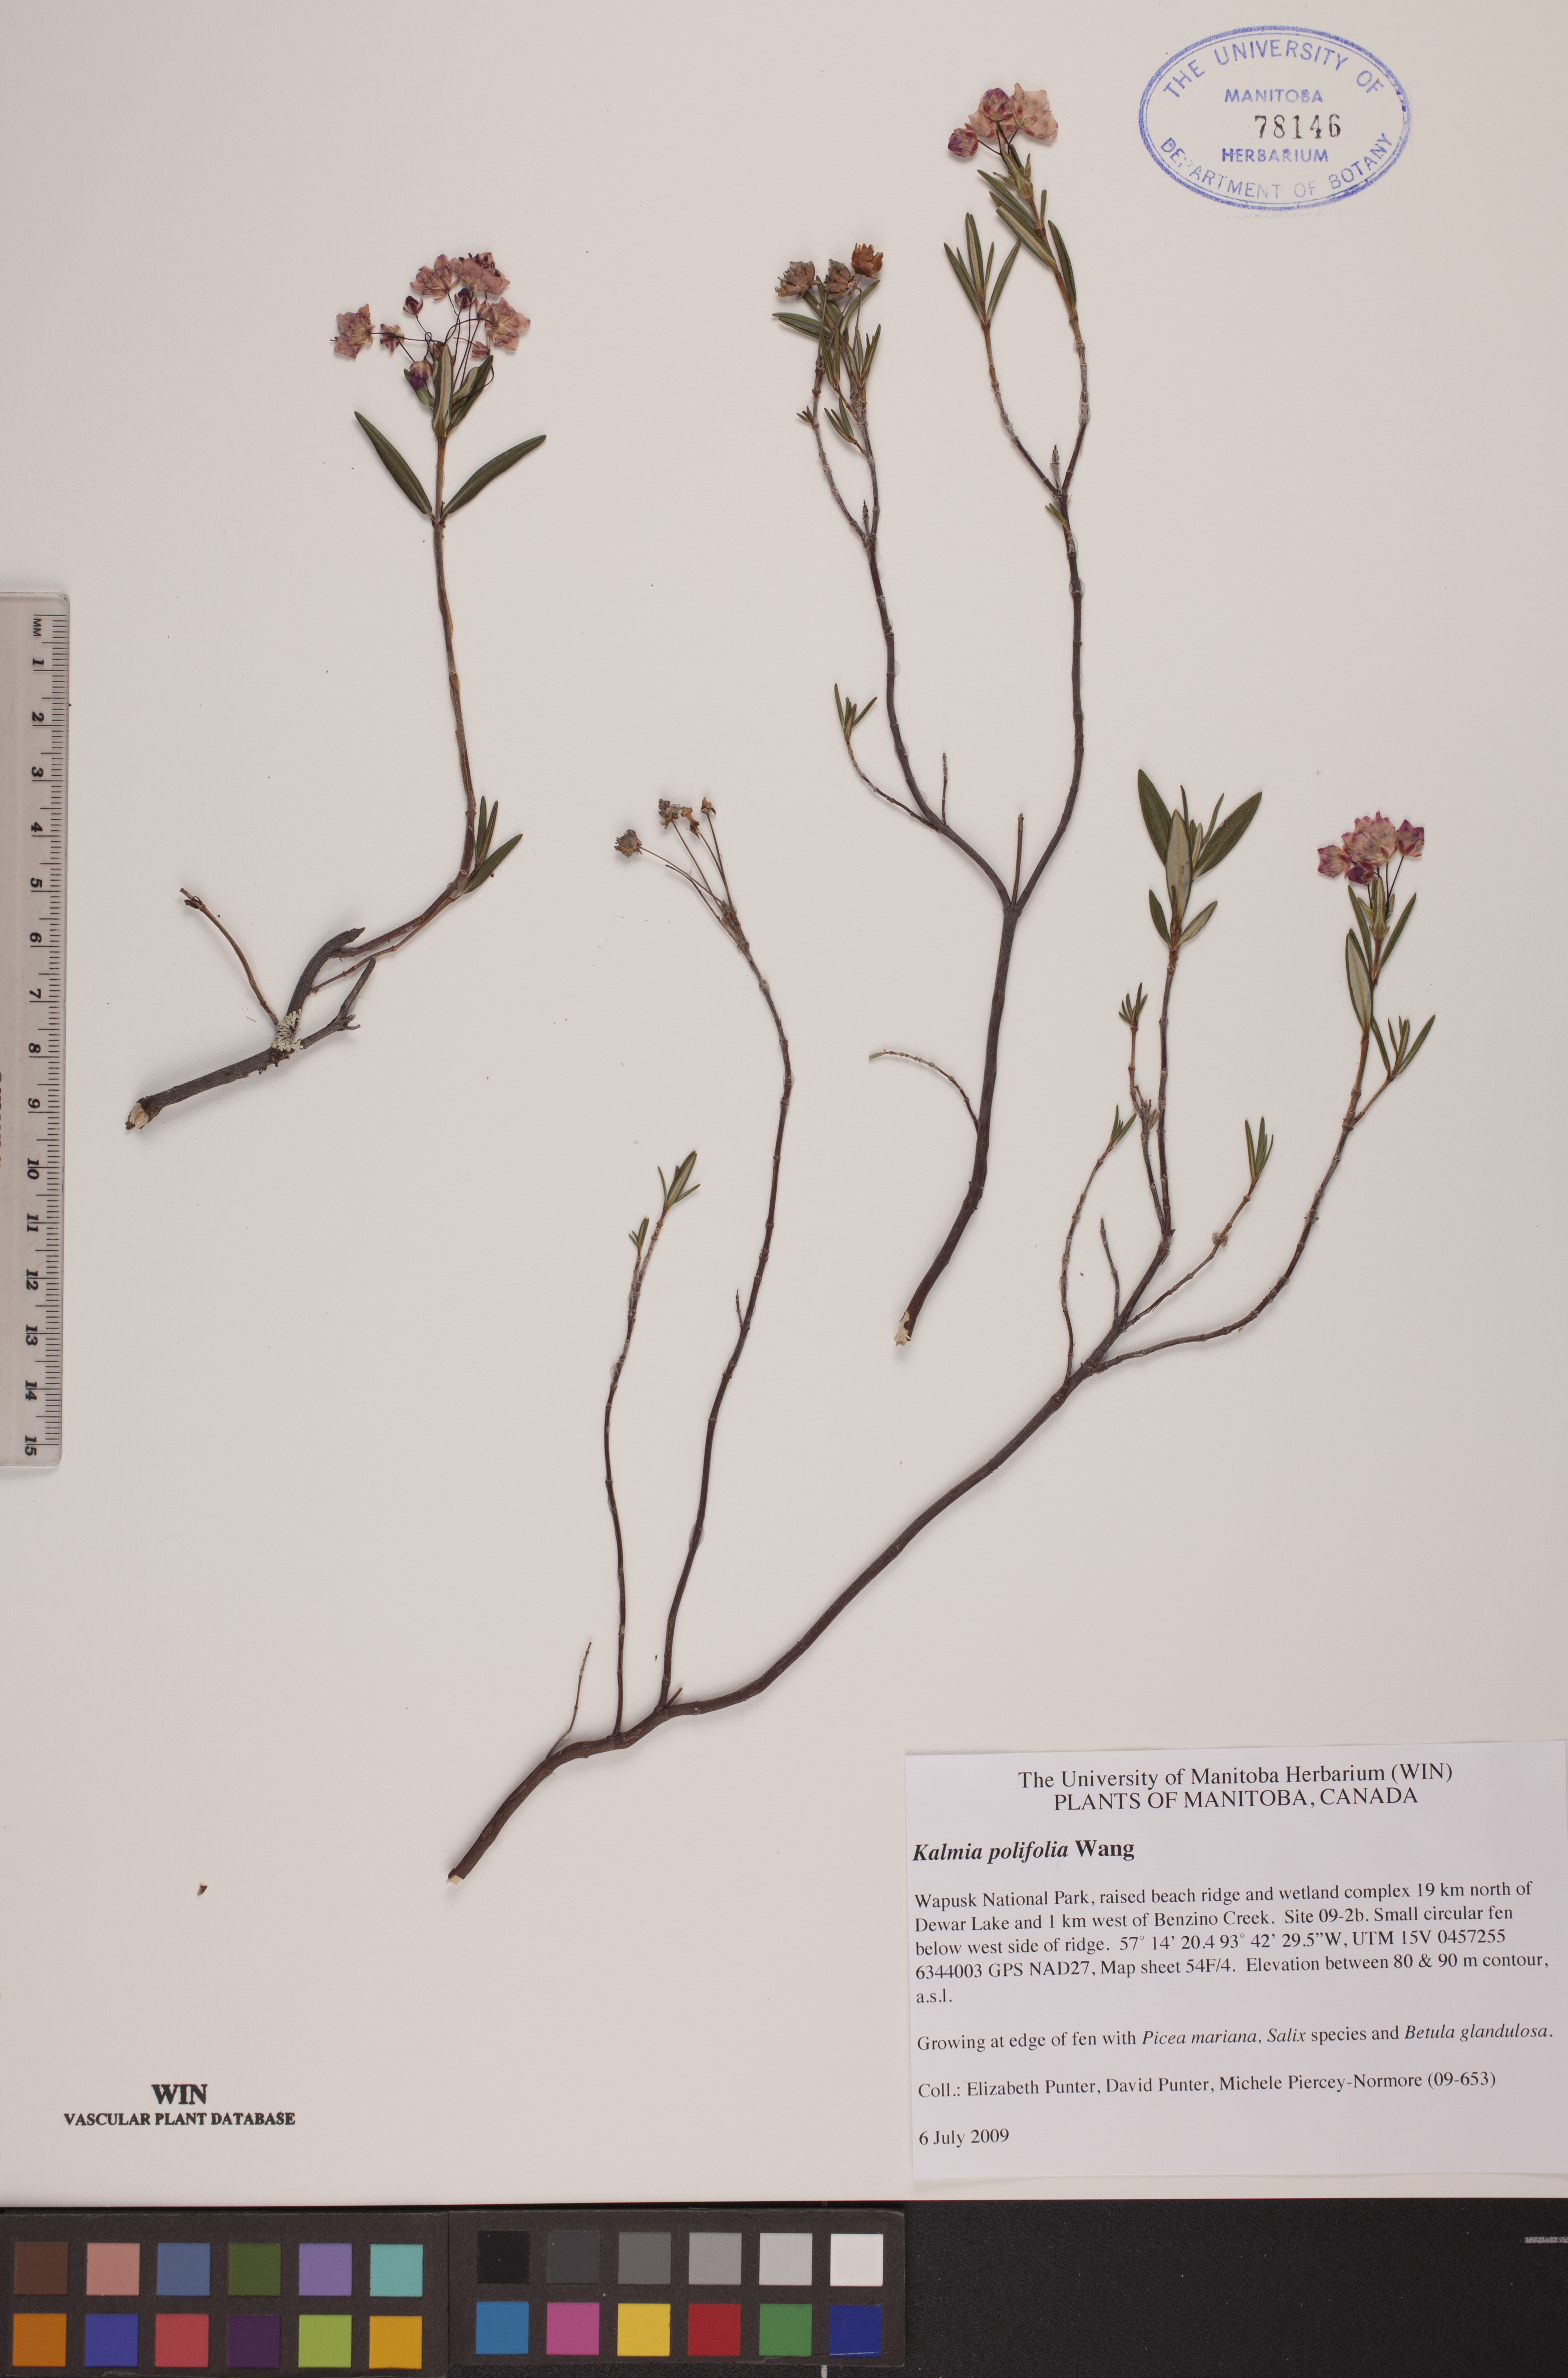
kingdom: Plantae
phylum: Tracheophyta
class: Magnoliopsida
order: Ericales
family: Ericaceae
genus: Kalmia
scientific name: Kalmia polifolia
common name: Bog-laurel
